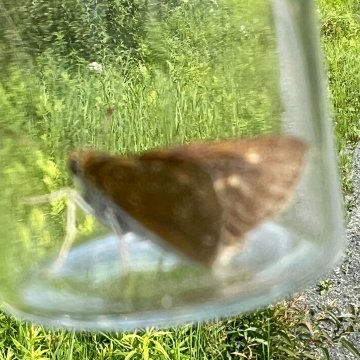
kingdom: Animalia
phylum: Arthropoda
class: Insecta
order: Lepidoptera
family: Hesperiidae
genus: Euphyes
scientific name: Euphyes bimacula
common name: Two-spotted Skipper
